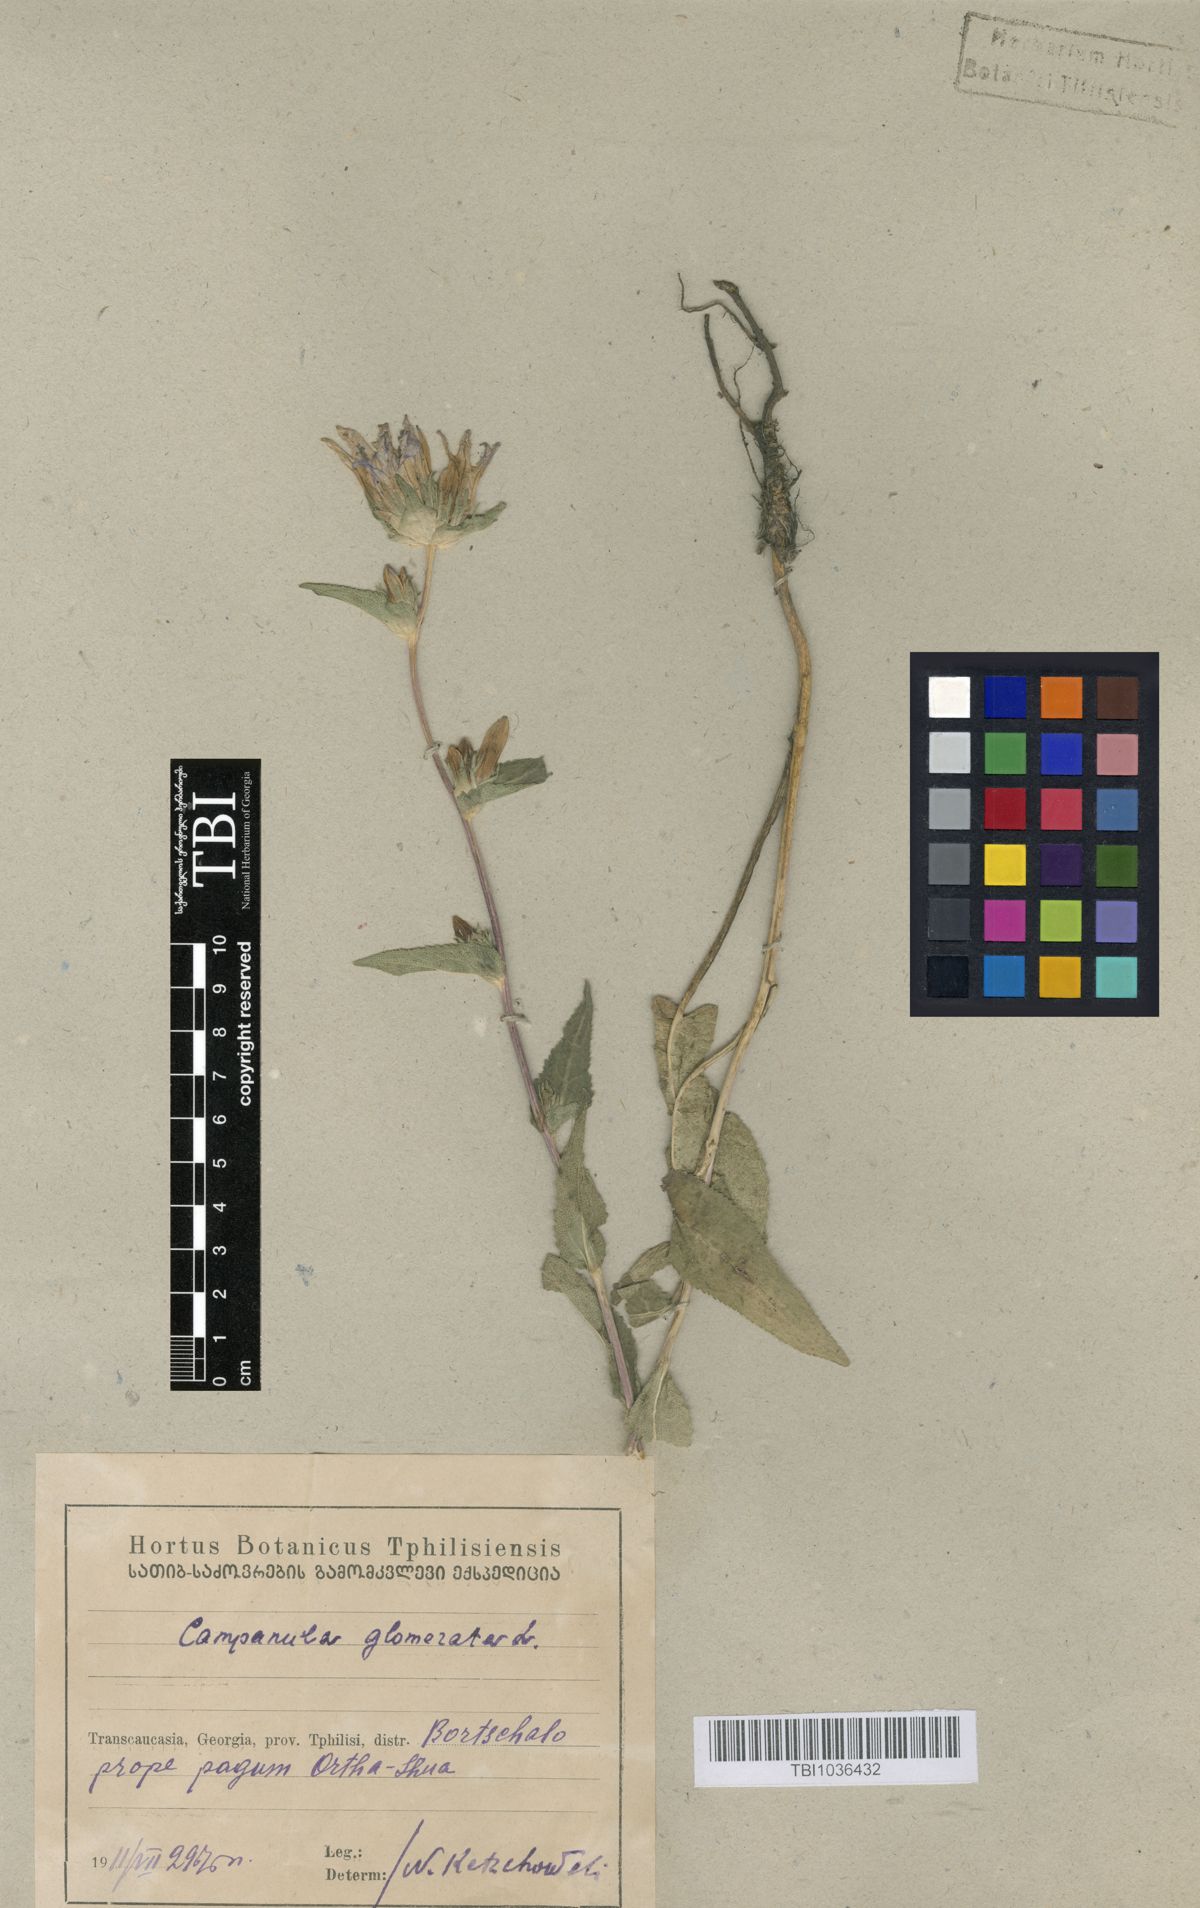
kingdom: Plantae
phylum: Tracheophyta
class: Magnoliopsida
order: Asterales
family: Campanulaceae
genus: Campanula
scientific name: Campanula glomerata
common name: Clustered bellflower
